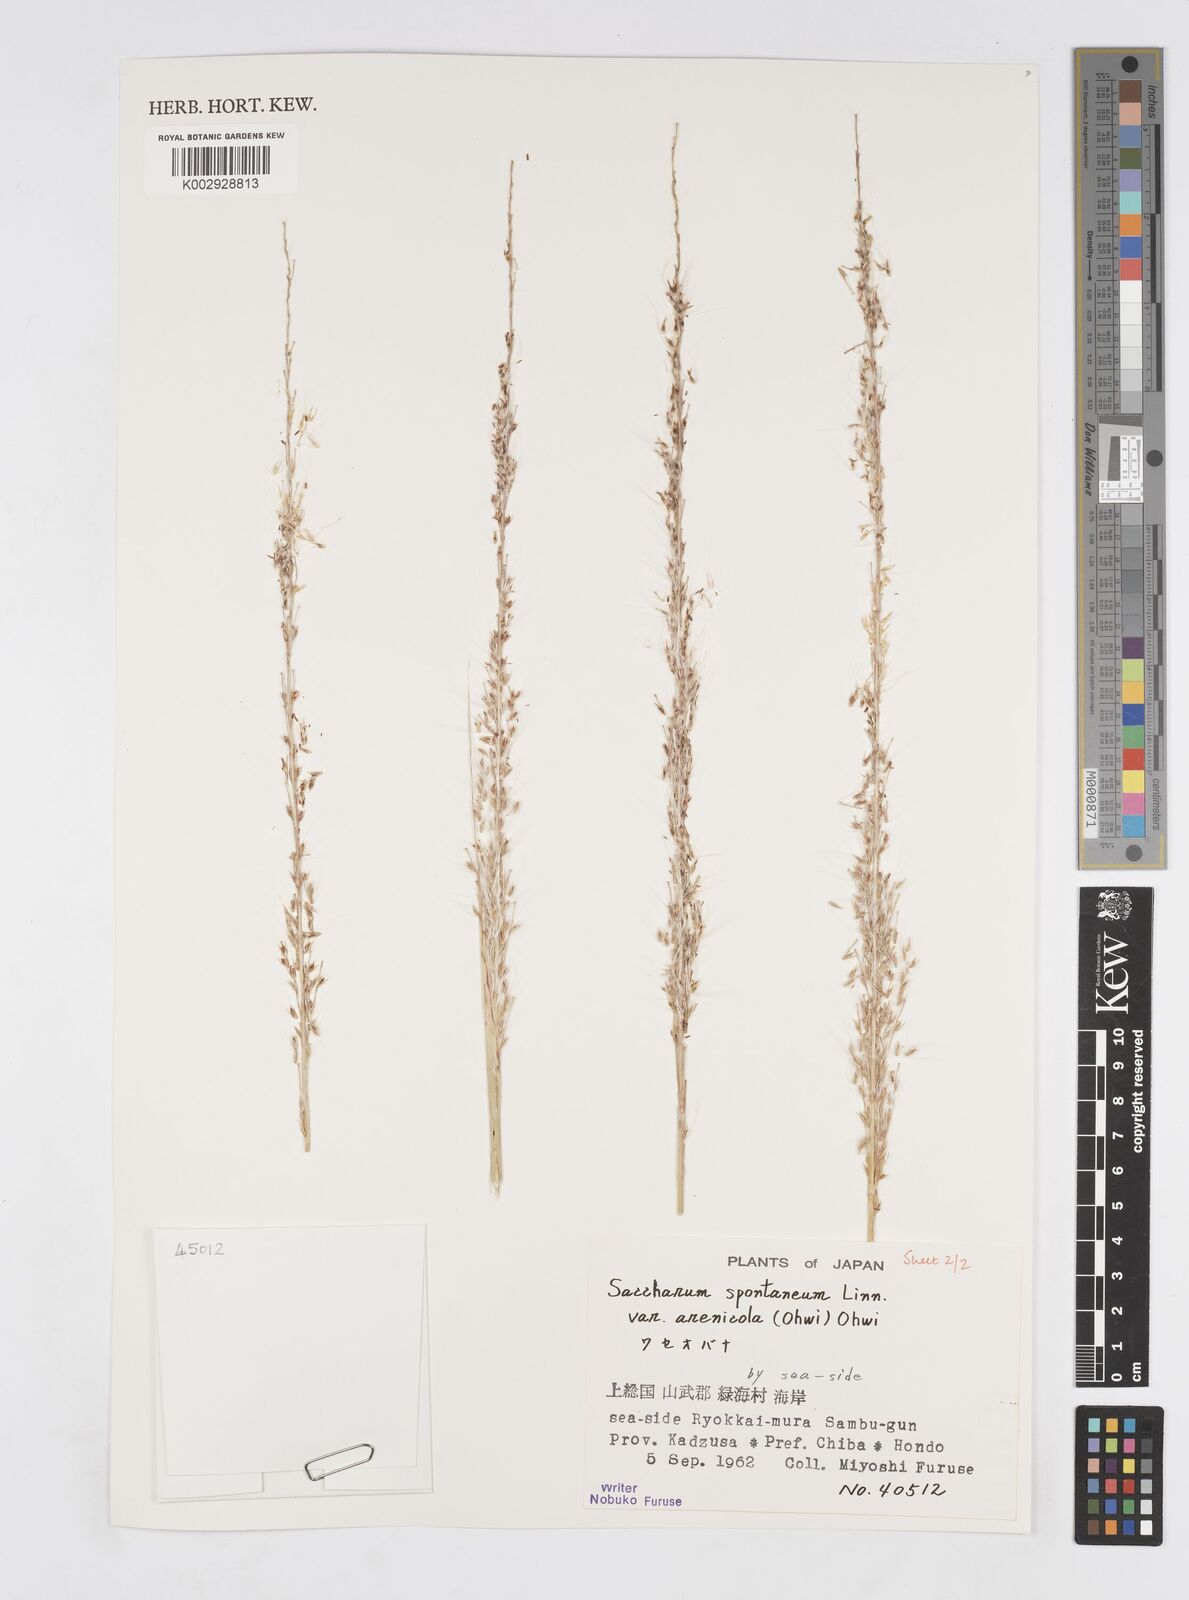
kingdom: Plantae
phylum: Tracheophyta
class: Liliopsida
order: Poales
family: Poaceae
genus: Saccharum
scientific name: Saccharum spontaneum
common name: Wild sugarcane
